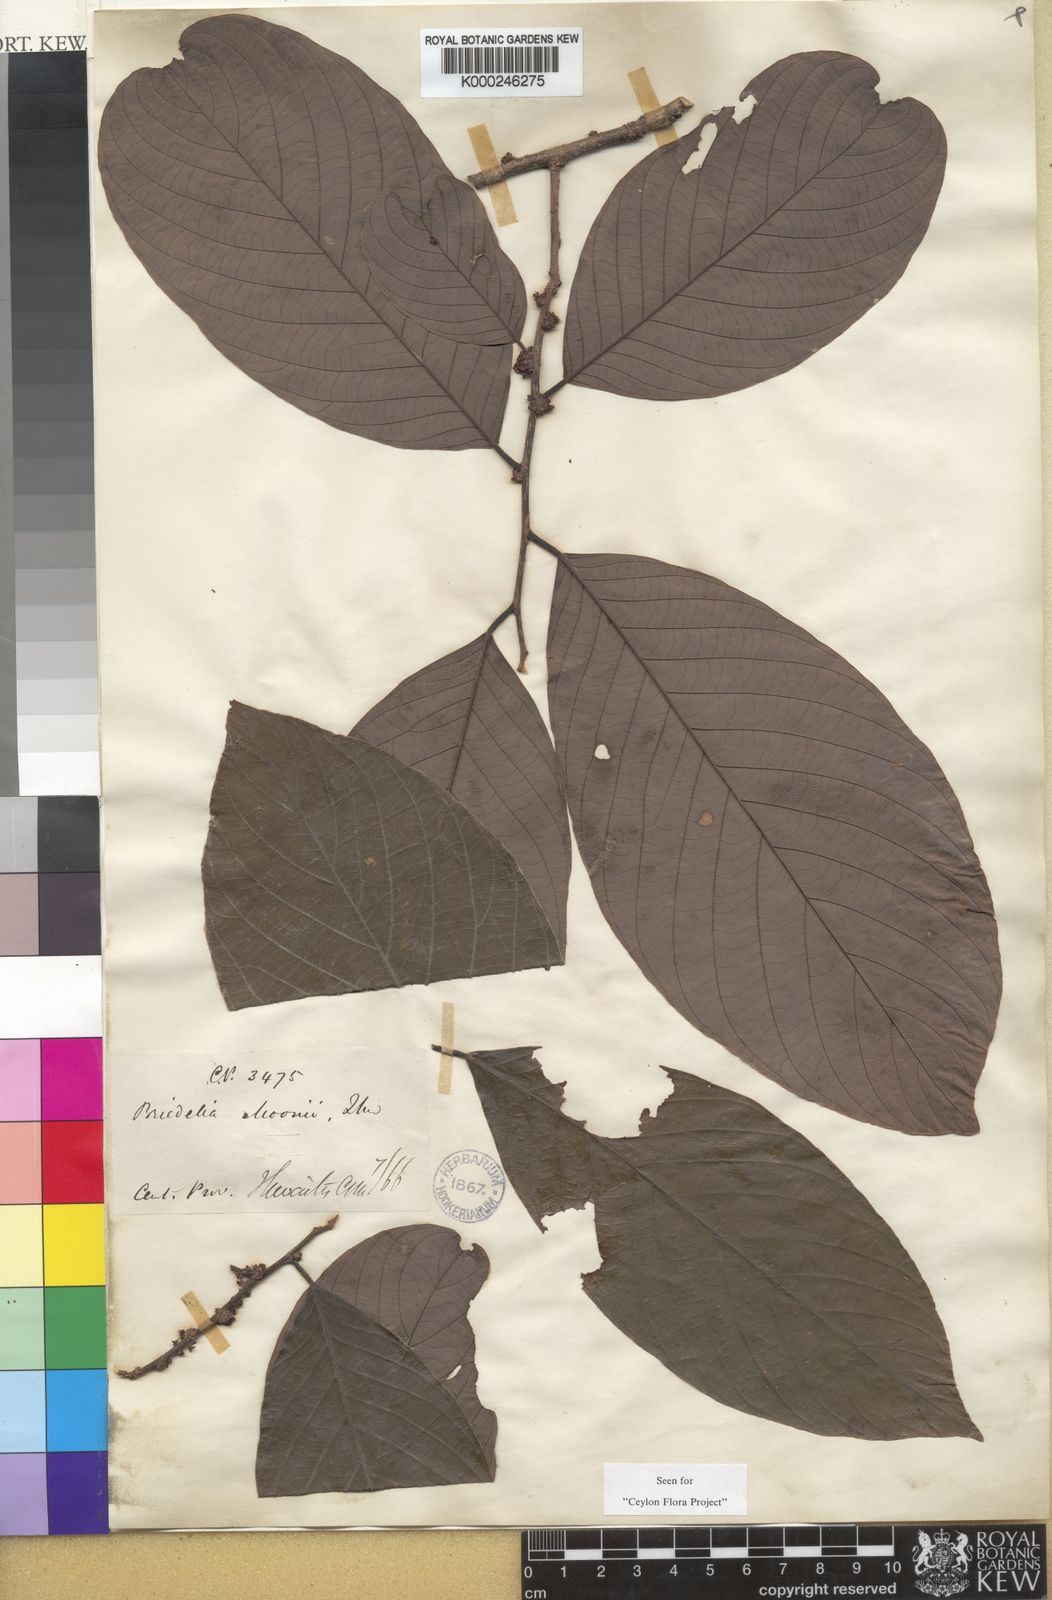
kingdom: Plantae
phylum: Tracheophyta
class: Magnoliopsida
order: Malpighiales
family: Phyllanthaceae
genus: Bridelia
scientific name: Bridelia moonii
